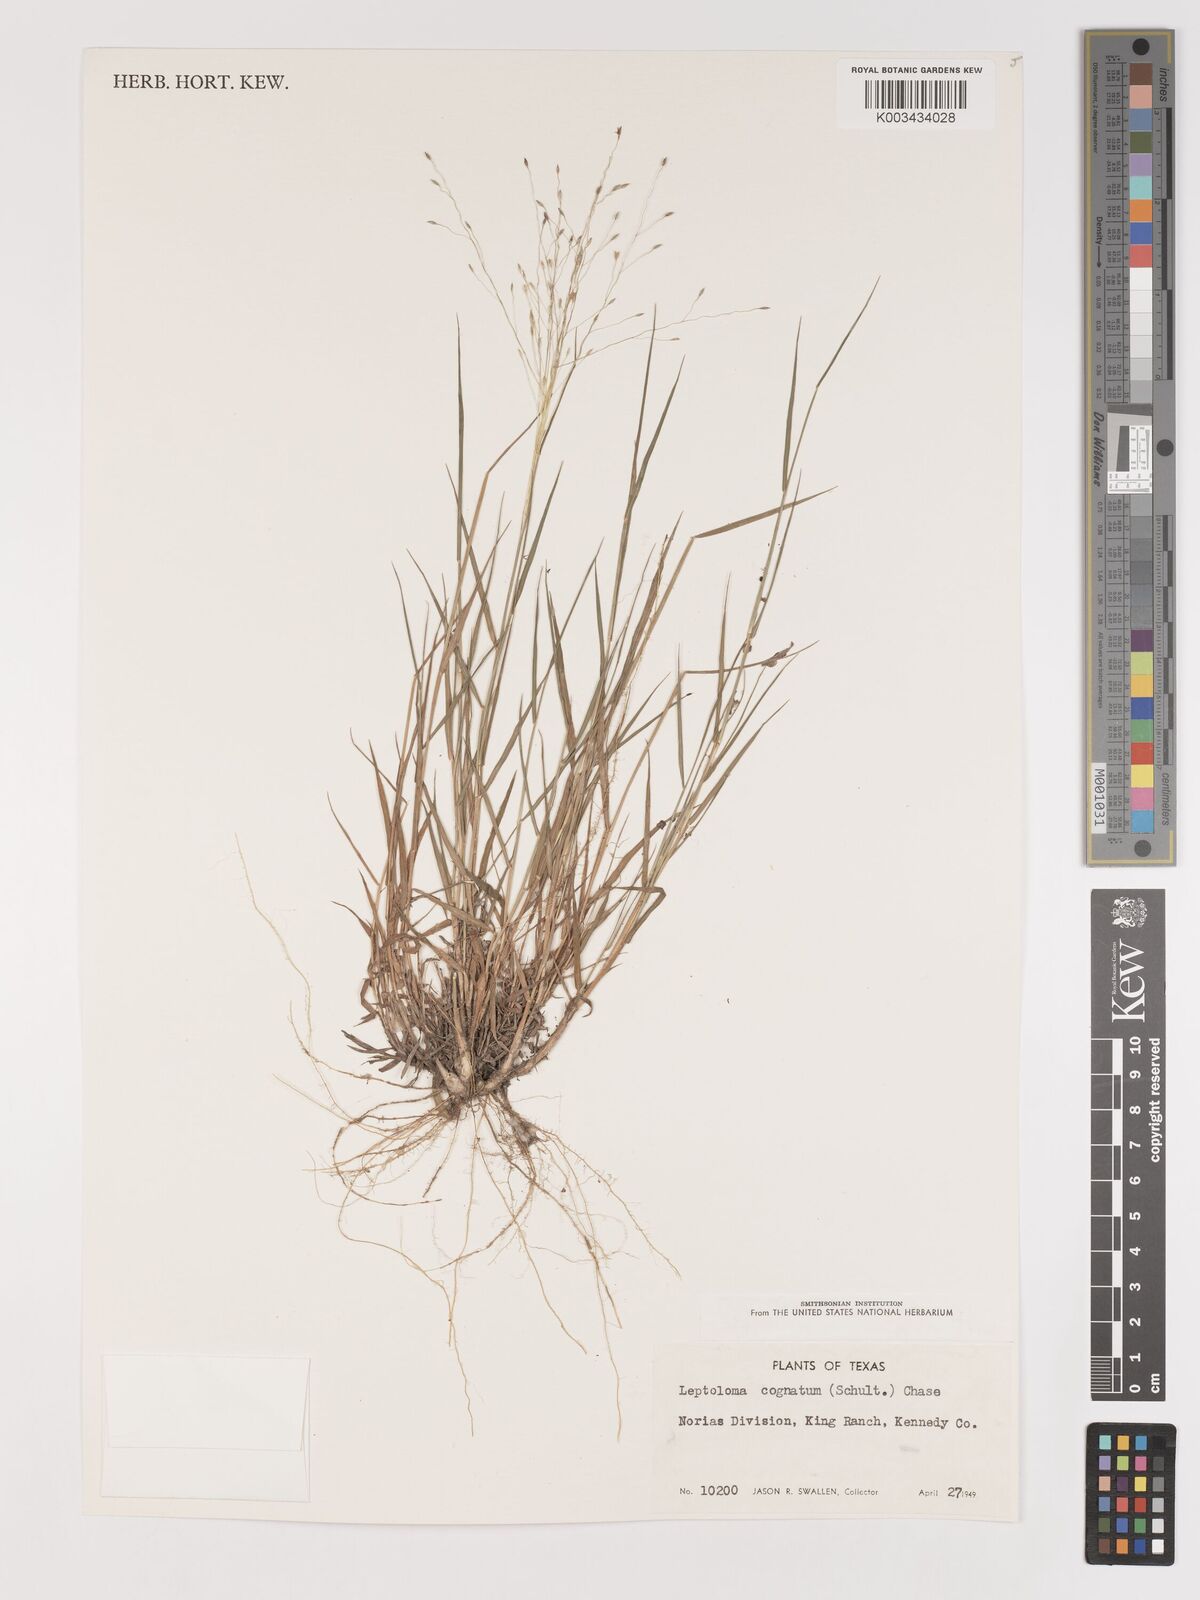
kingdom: Plantae
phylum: Tracheophyta
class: Liliopsida
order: Poales
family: Poaceae
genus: Digitaria
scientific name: Digitaria cognata
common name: Fall witchgrass
